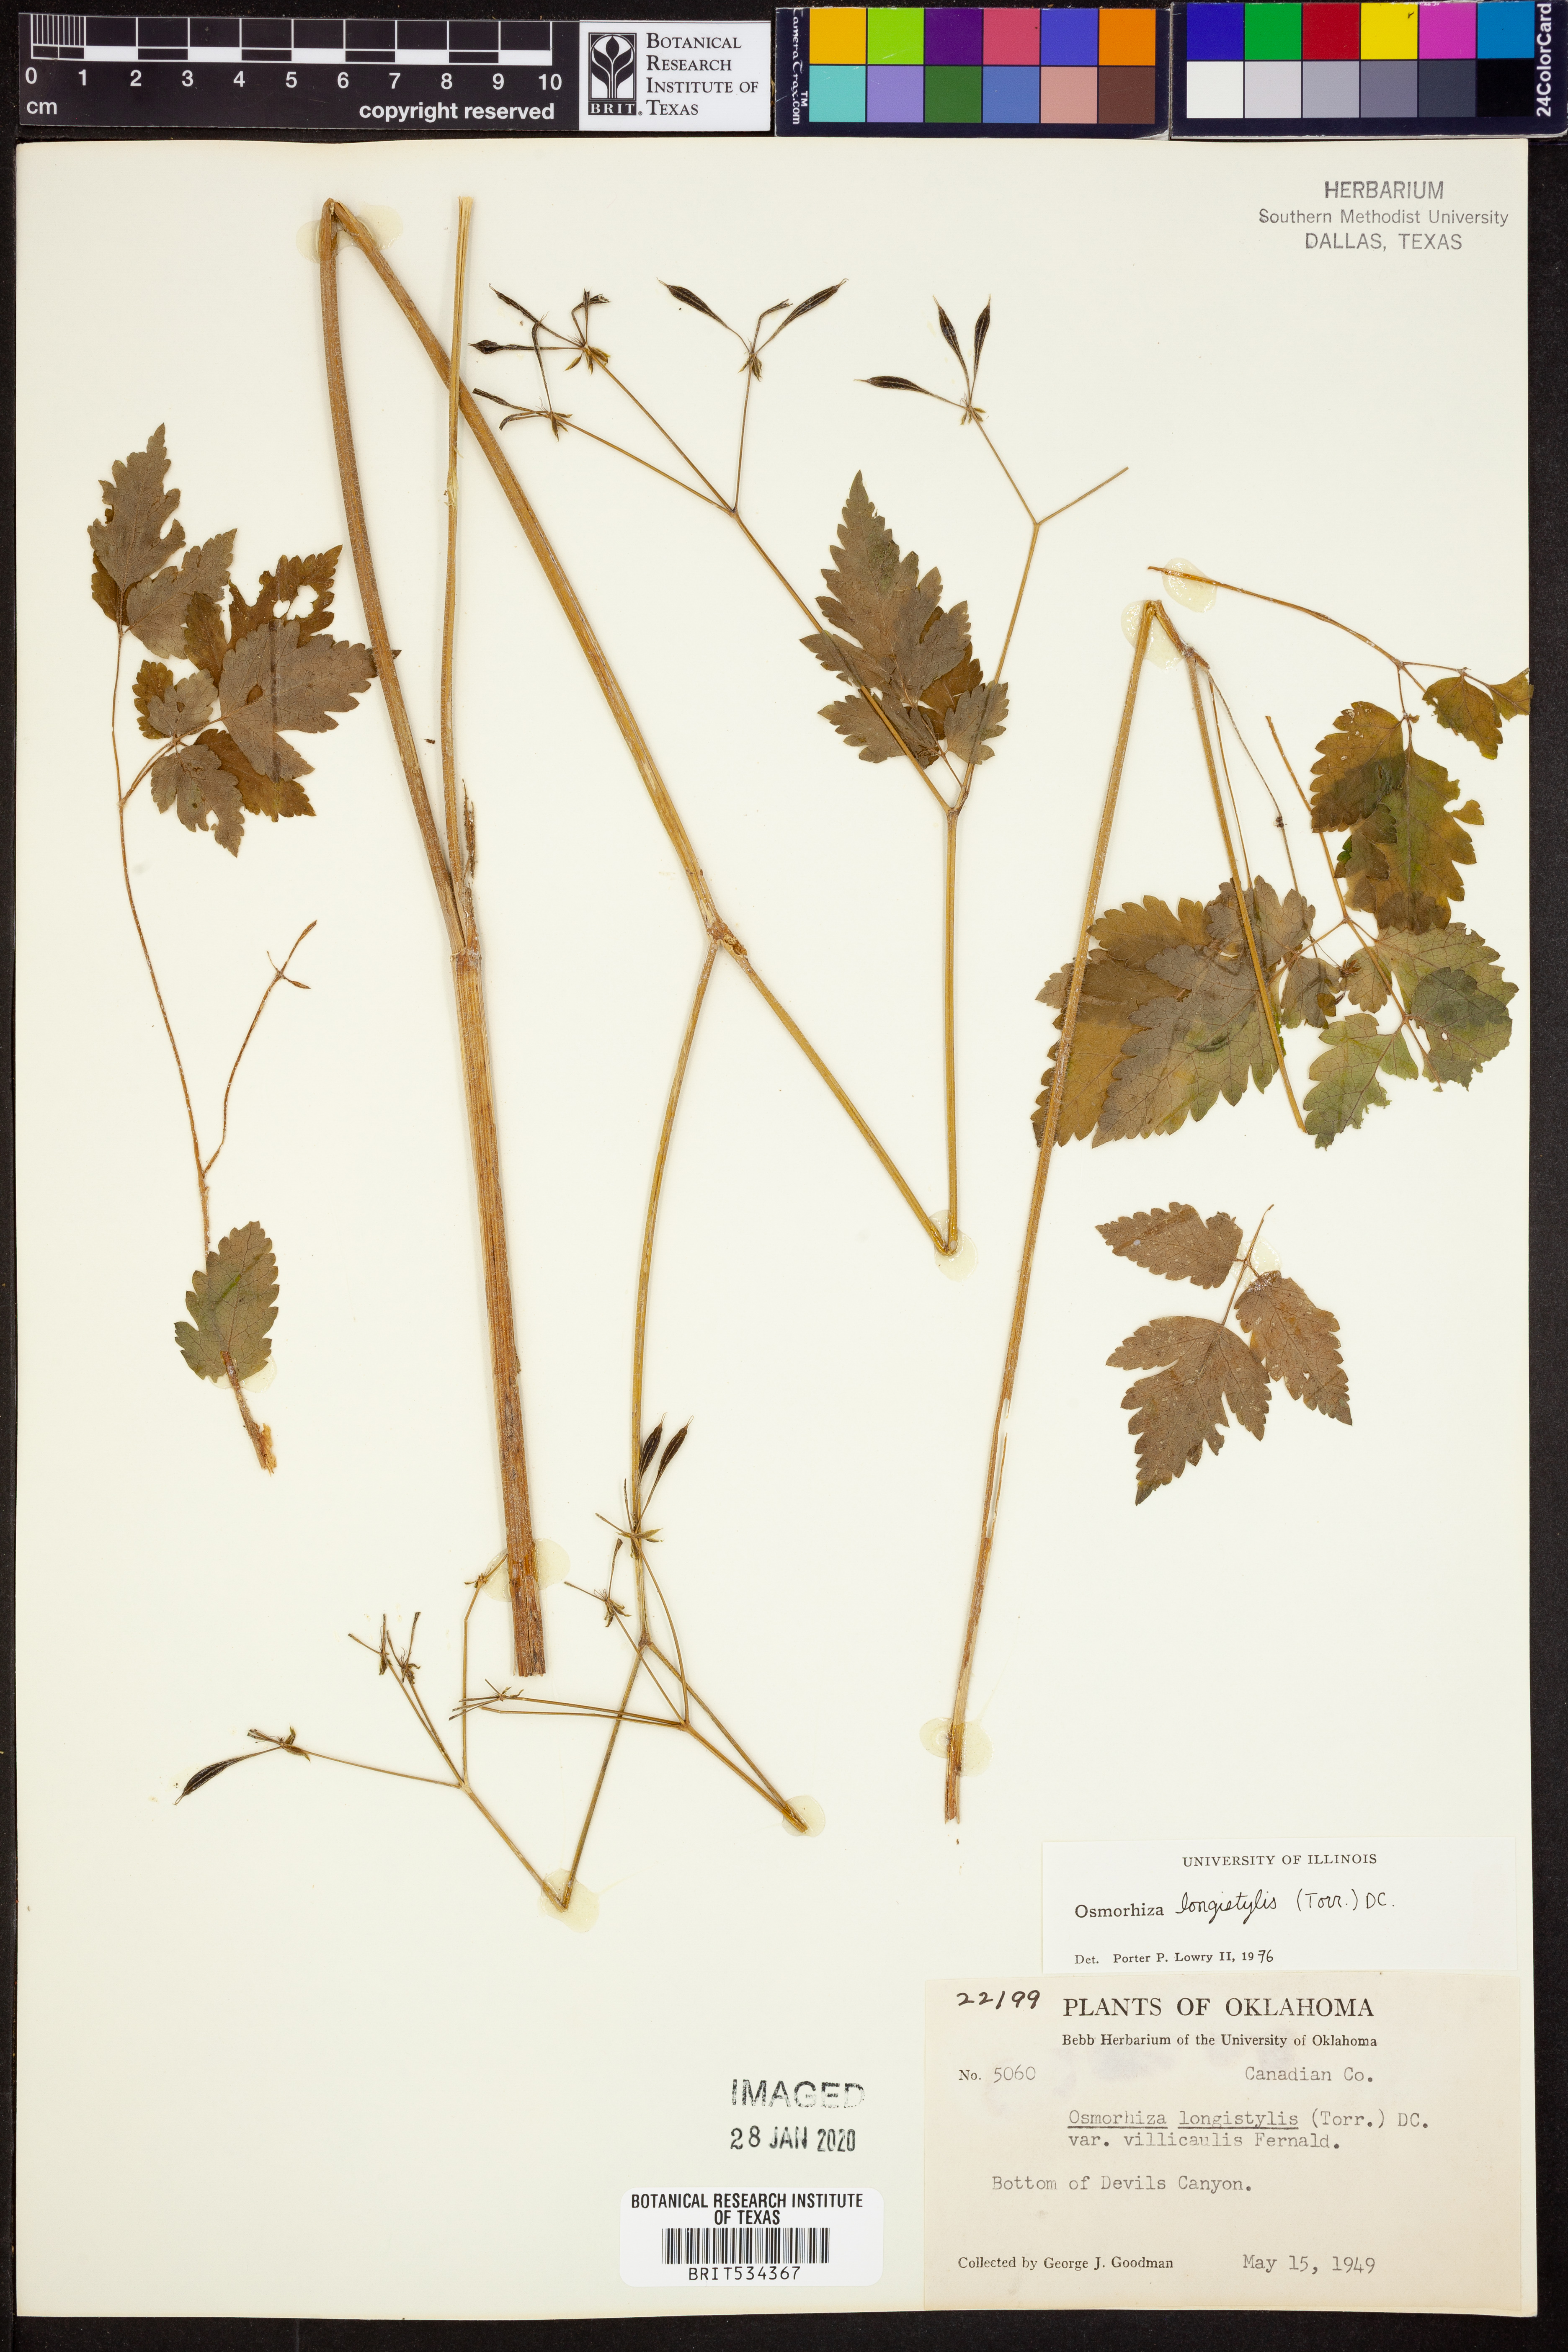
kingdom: Plantae
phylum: Tracheophyta
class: Magnoliopsida
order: Apiales
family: Apiaceae
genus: Osmorhiza
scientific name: Osmorhiza longistylis
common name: Smooth sweet cicely
